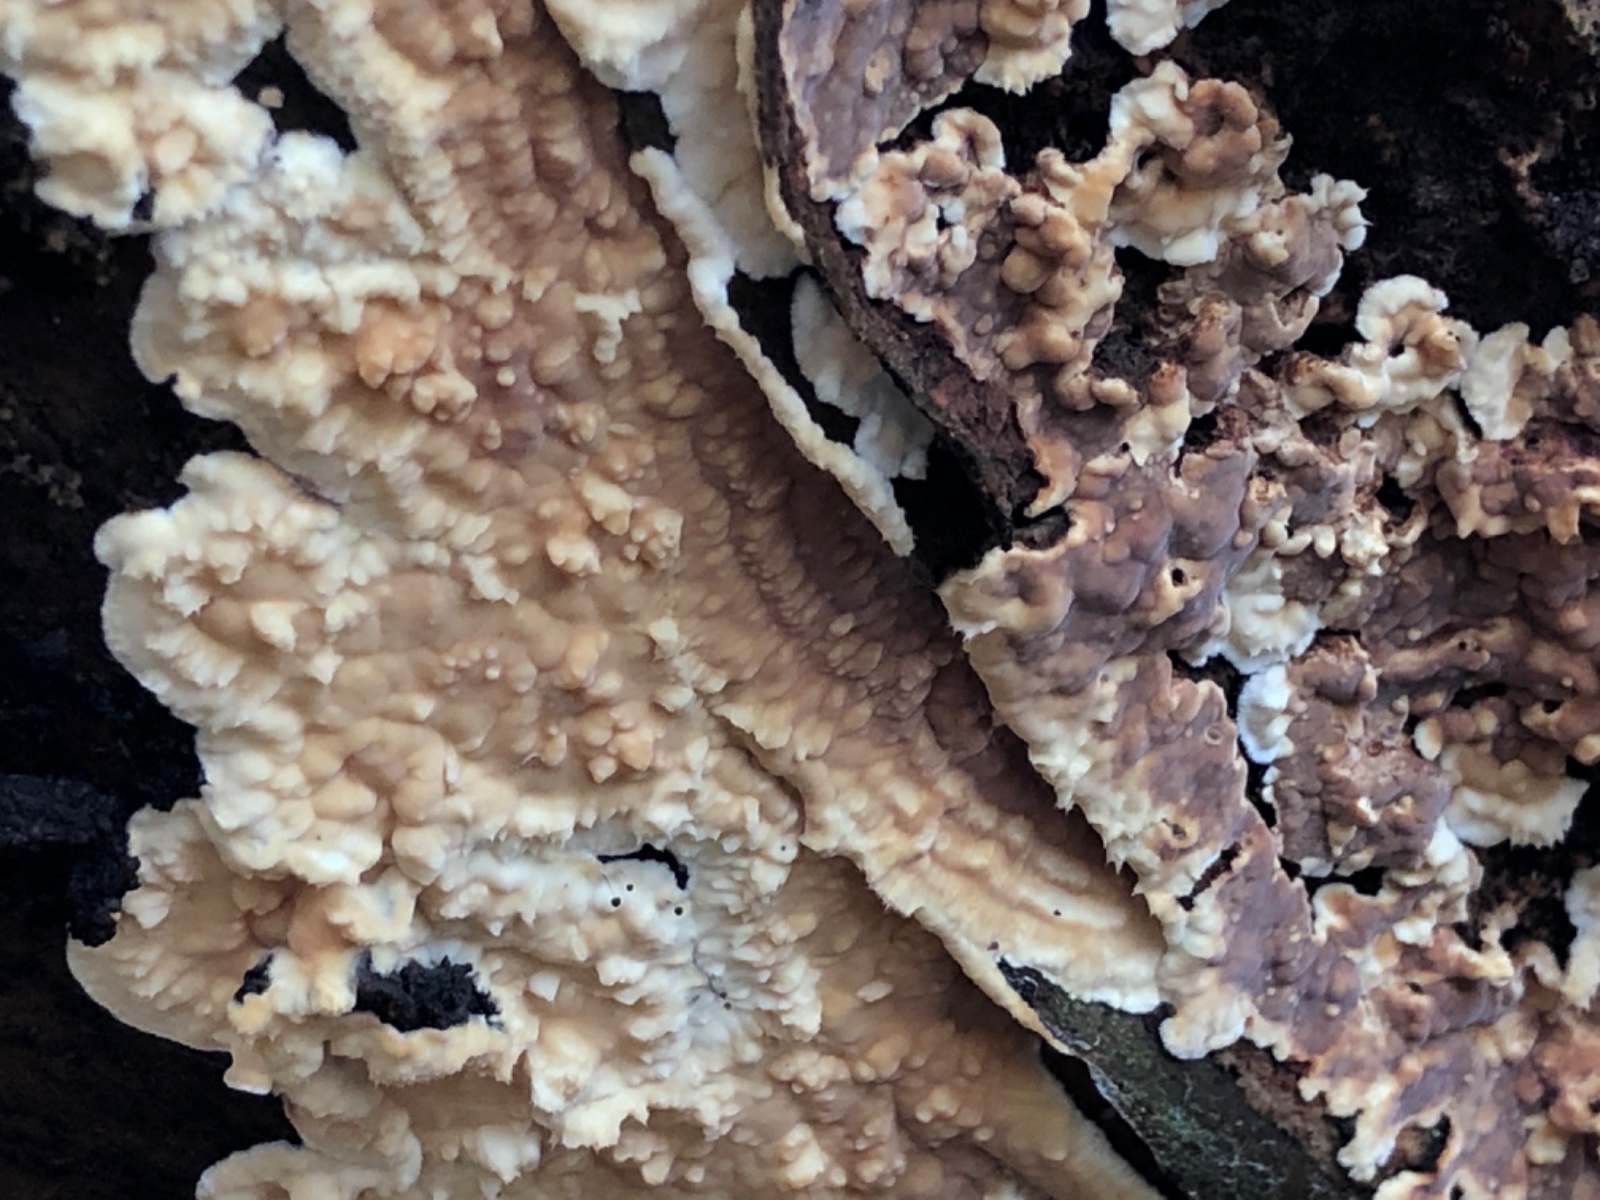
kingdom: Fungi
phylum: Basidiomycota
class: Agaricomycetes
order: Polyporales
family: Dacryobolaceae
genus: Dacryobolus
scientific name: Dacryobolus karstenii
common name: glat vulkanskorpe
